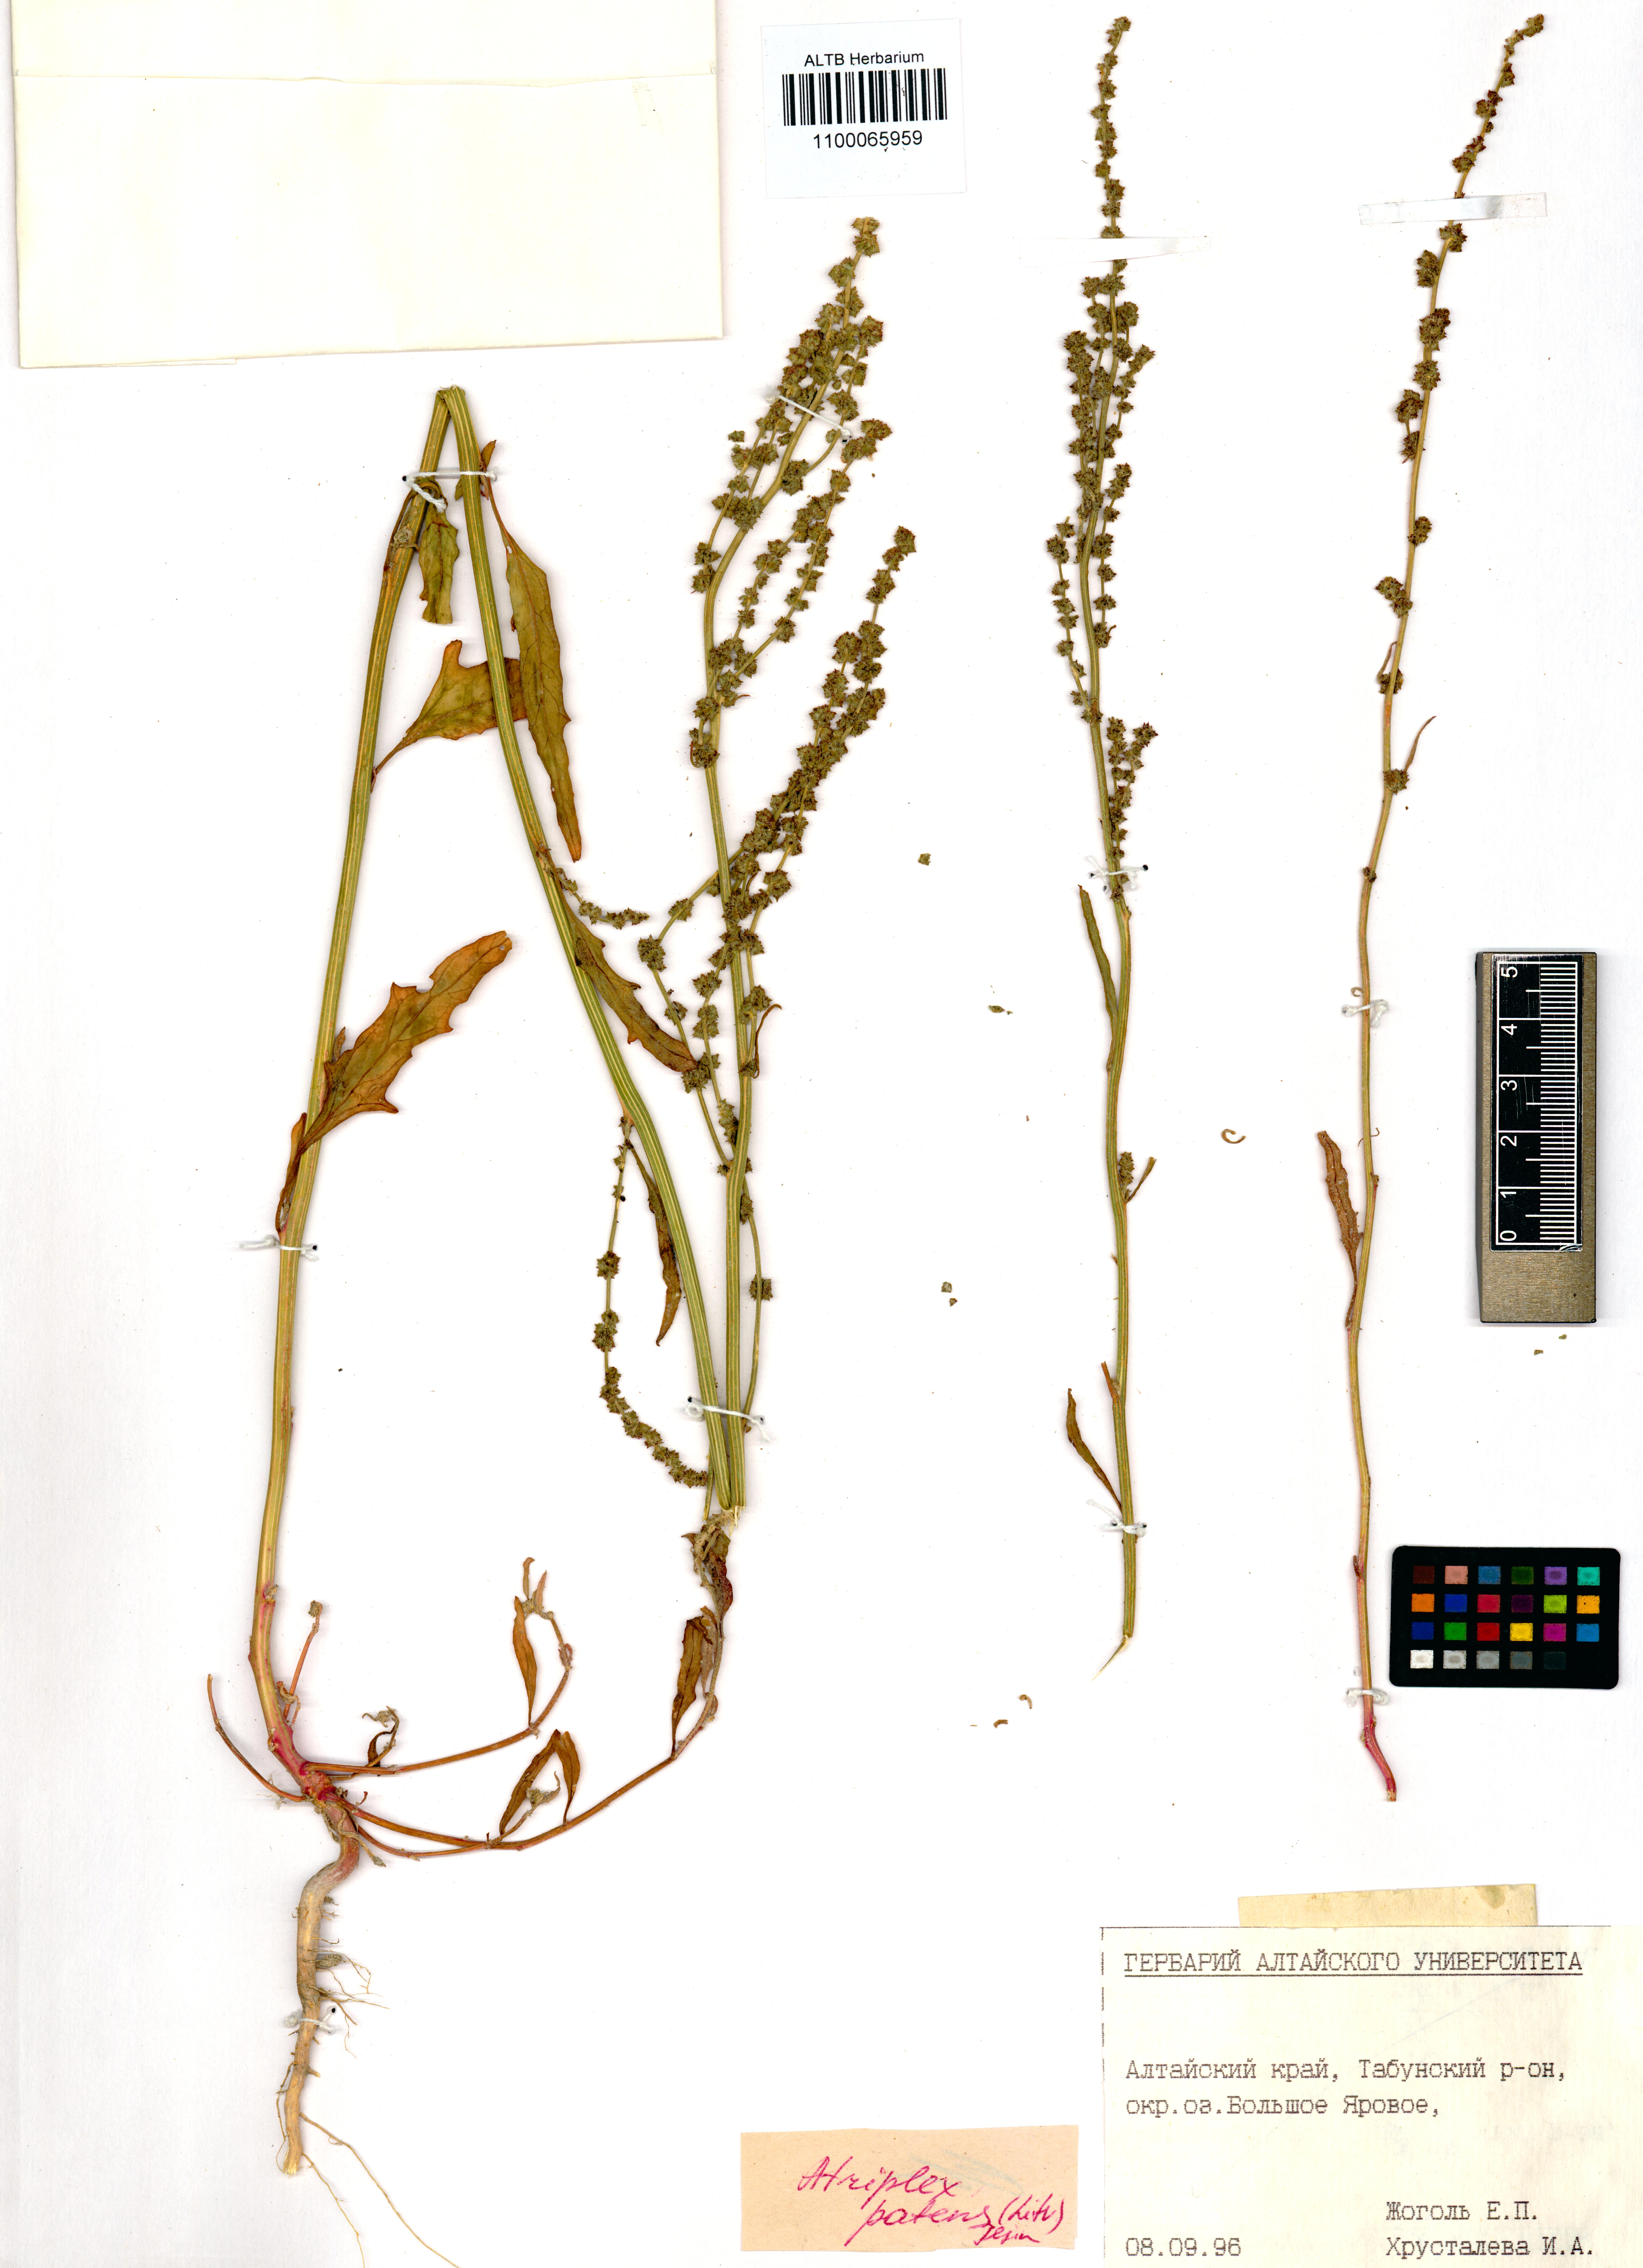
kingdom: Plantae
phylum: Tracheophyta
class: Magnoliopsida
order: Caryophyllales
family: Amaranthaceae
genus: Atriplex
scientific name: Atriplex patens
